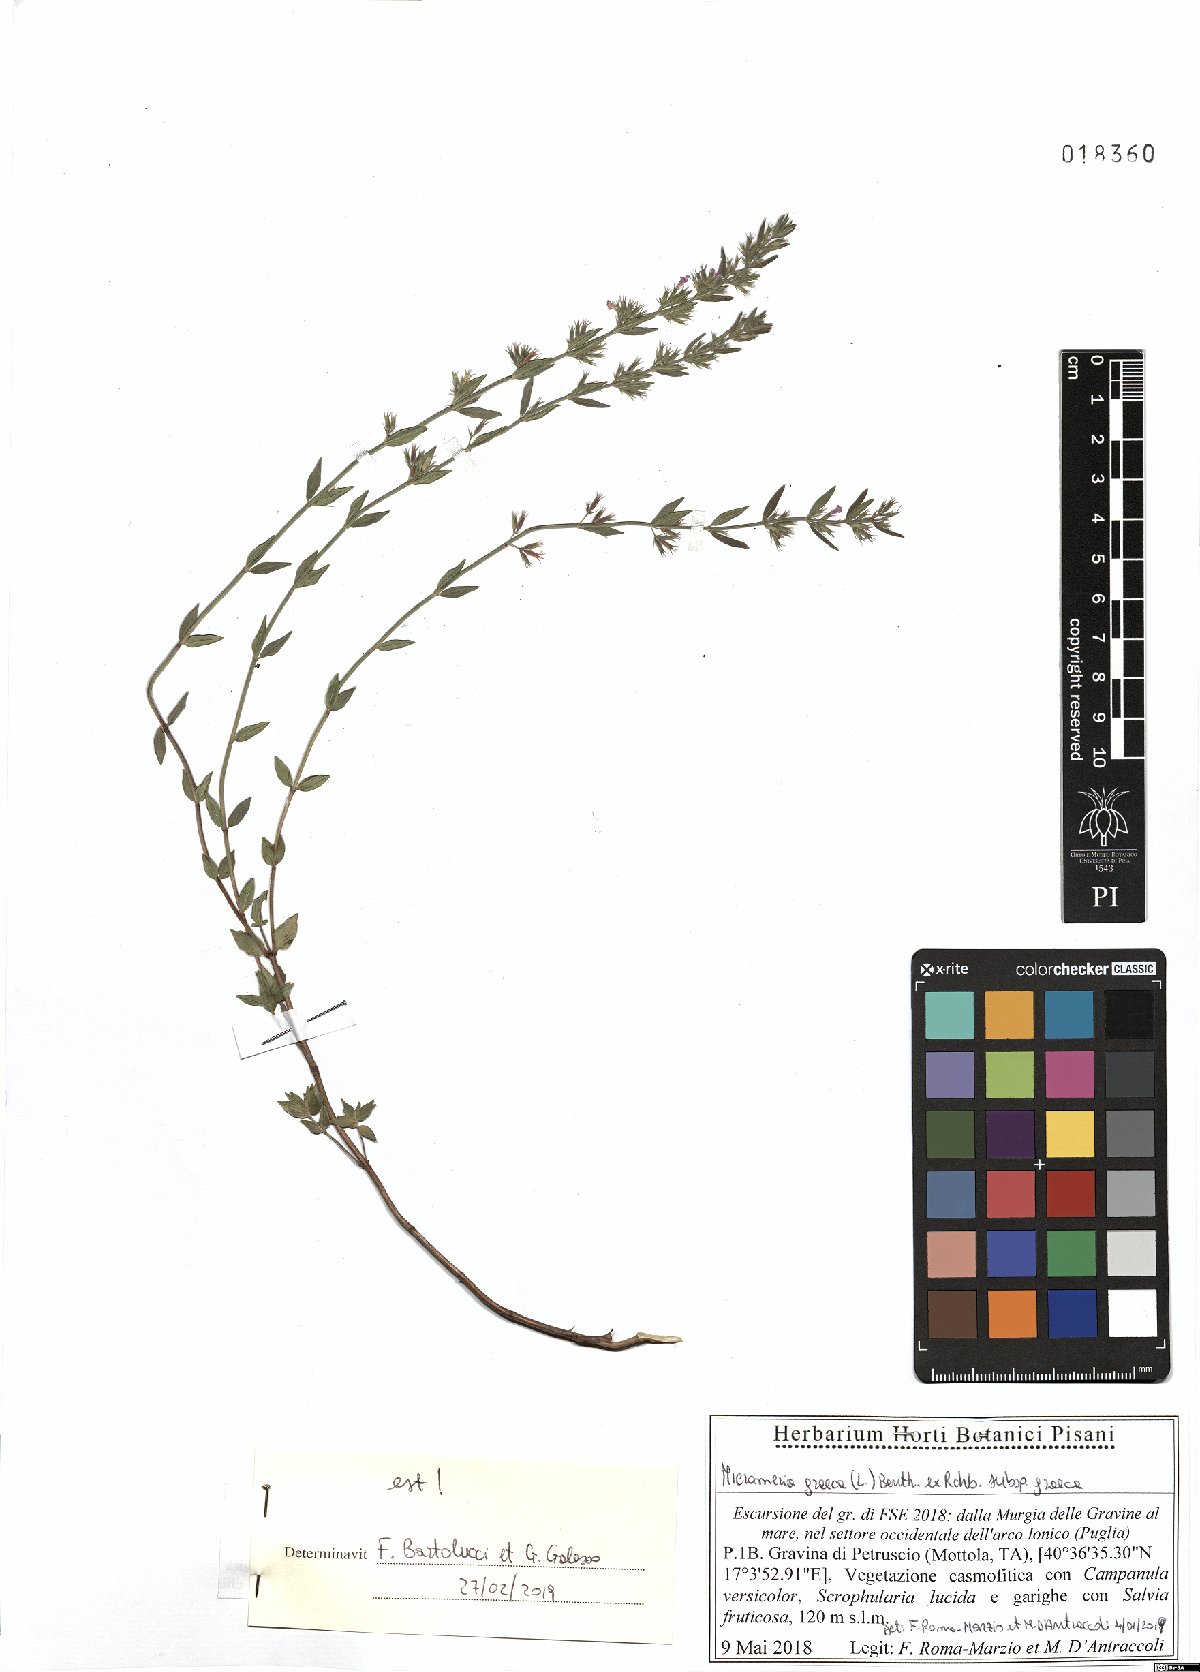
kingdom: Plantae
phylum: Tracheophyta
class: Magnoliopsida
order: Lamiales
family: Lamiaceae
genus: Micromeria
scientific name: Micromeria graeca
